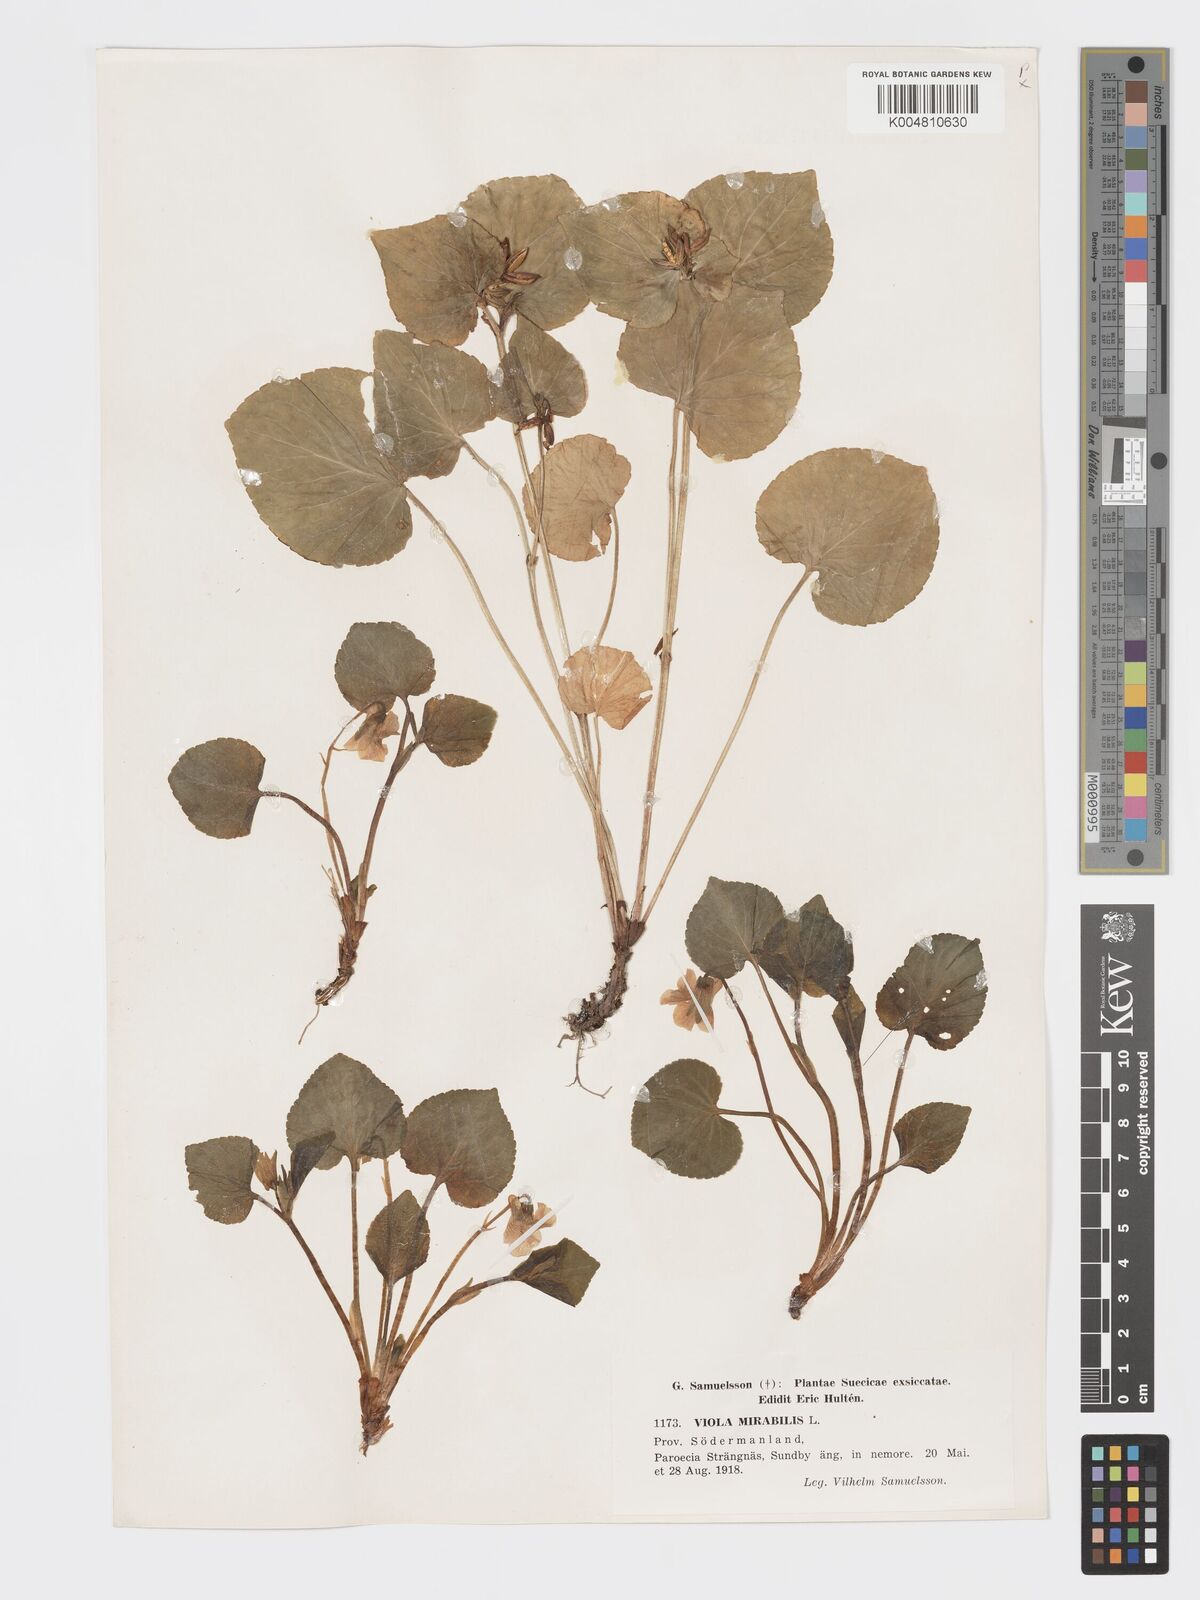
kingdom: Plantae
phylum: Tracheophyta
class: Magnoliopsida
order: Malpighiales
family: Violaceae
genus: Viola
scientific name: Viola mirabilis
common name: Wonder violet
